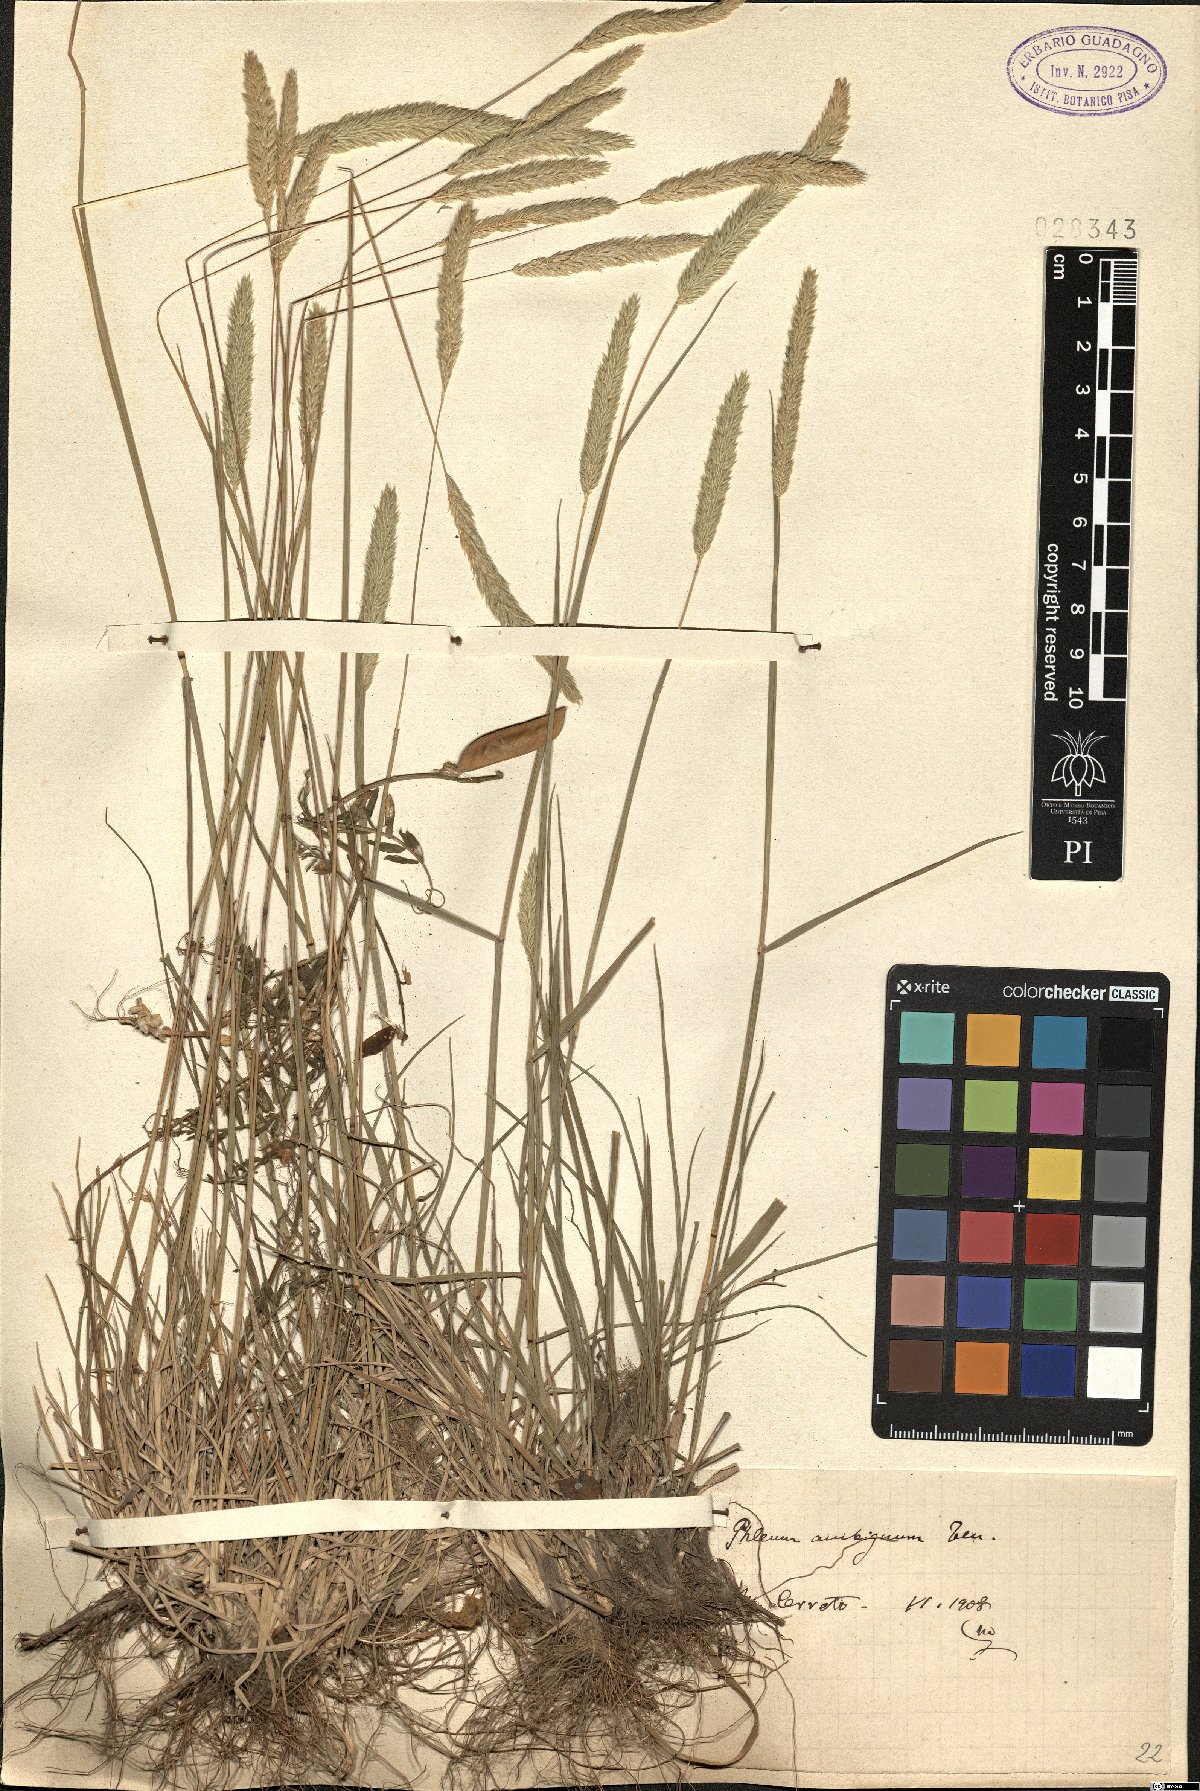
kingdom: Plantae
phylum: Tracheophyta
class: Liliopsida
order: Poales
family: Poaceae
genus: Phleum
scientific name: Phleum hirsutum
